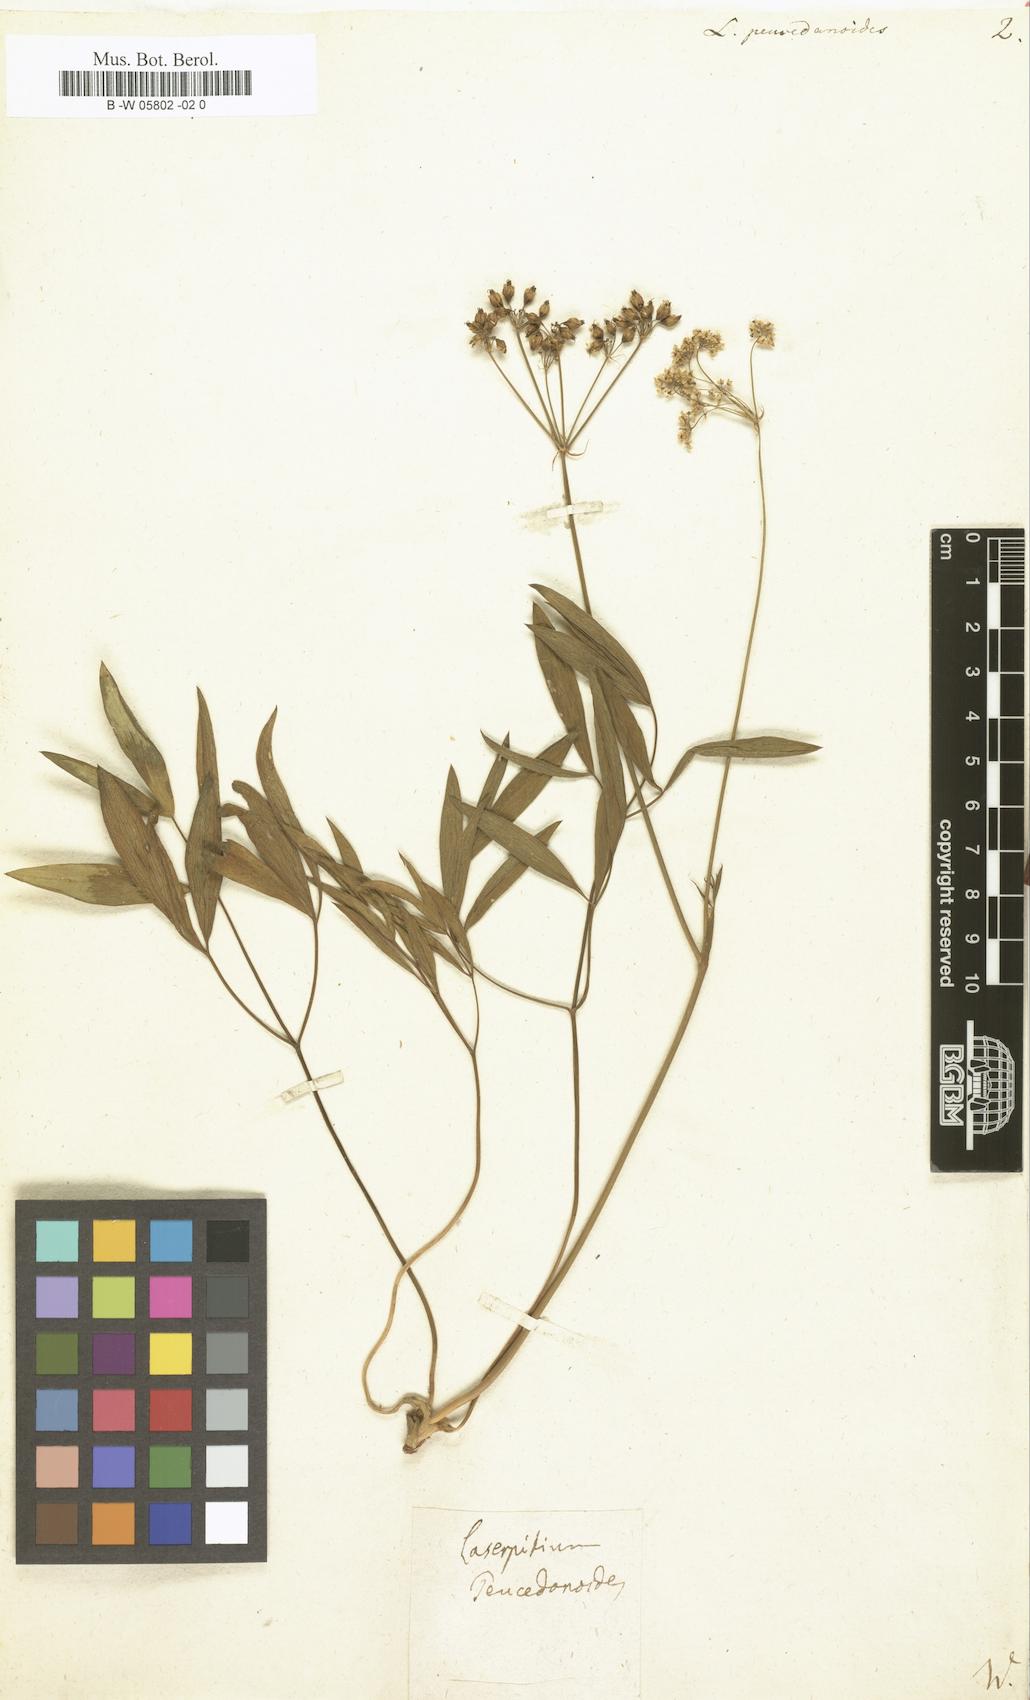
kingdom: Plantae
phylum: Tracheophyta
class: Magnoliopsida
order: Apiales
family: Apiaceae
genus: Laserpitium
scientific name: Laserpitium peucedanoides
